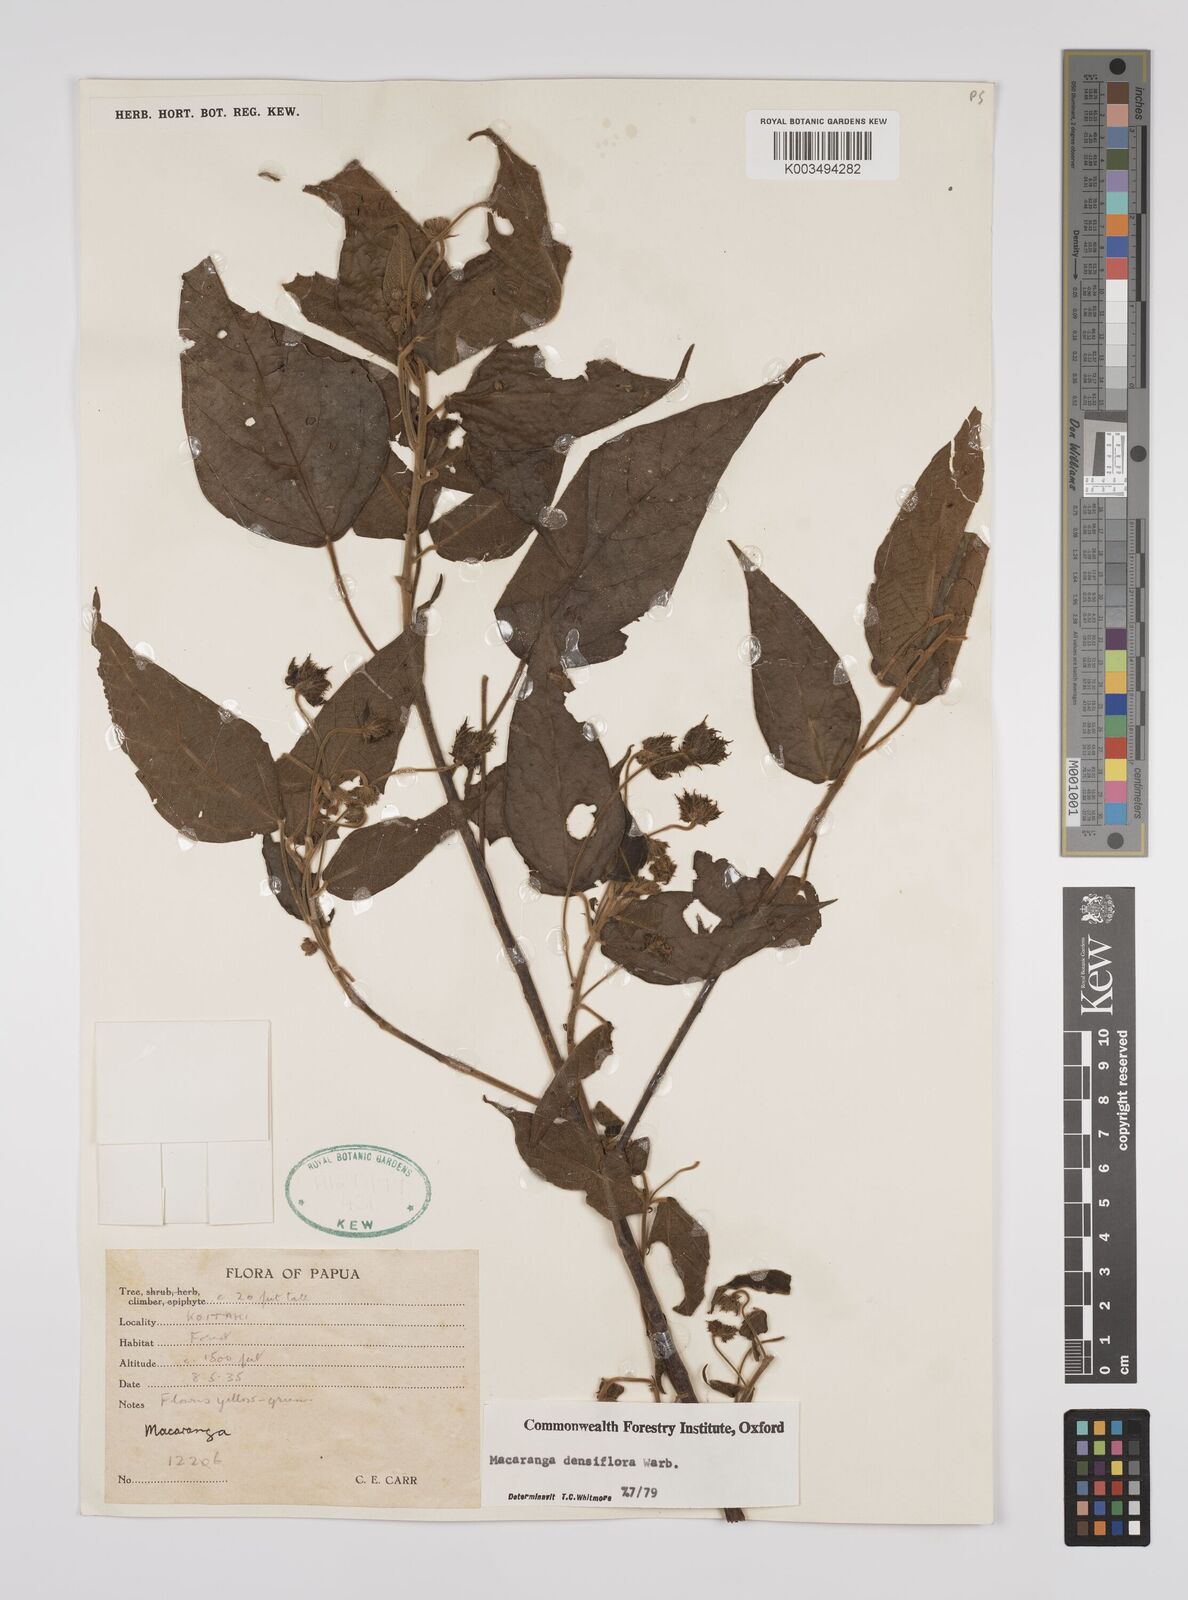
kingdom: Plantae
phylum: Tracheophyta
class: Magnoliopsida
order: Malpighiales
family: Euphorbiaceae
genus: Macaranga
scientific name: Macaranga densiflora
